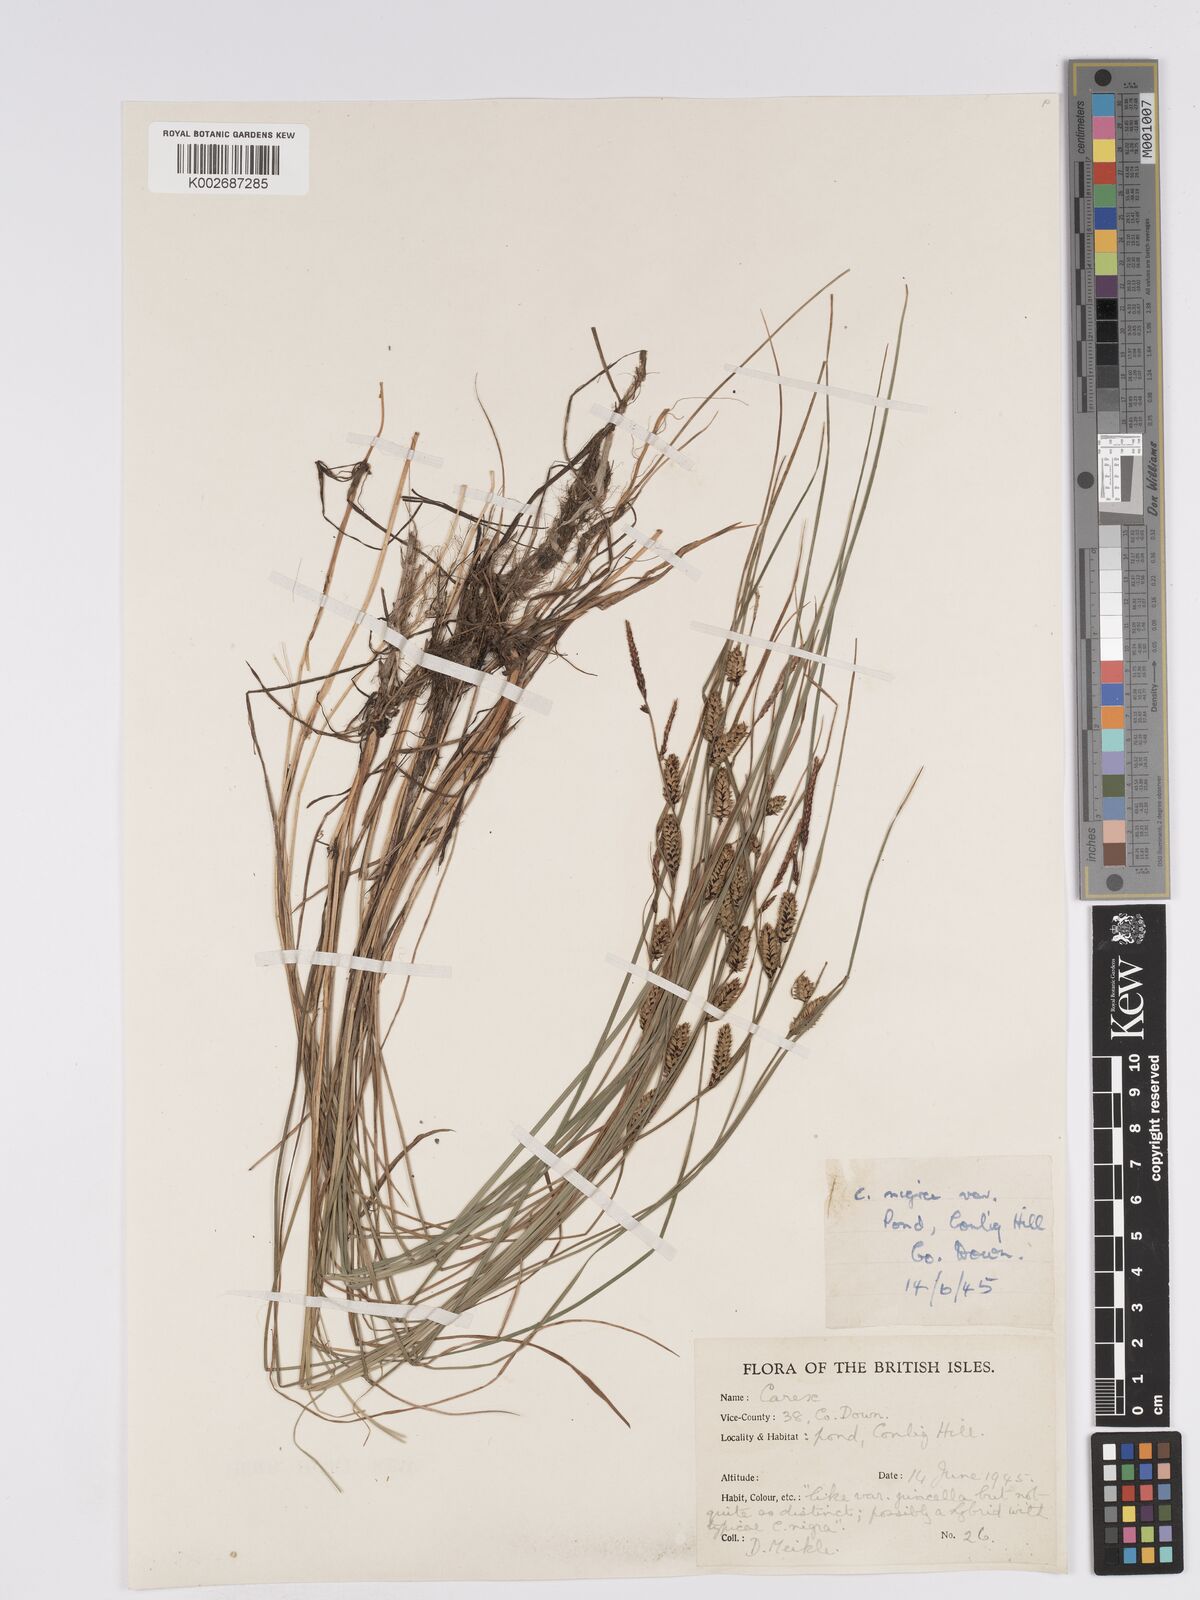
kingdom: Plantae
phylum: Tracheophyta
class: Liliopsida
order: Poales
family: Cyperaceae
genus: Carex
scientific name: Carex nigra
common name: Common sedge
